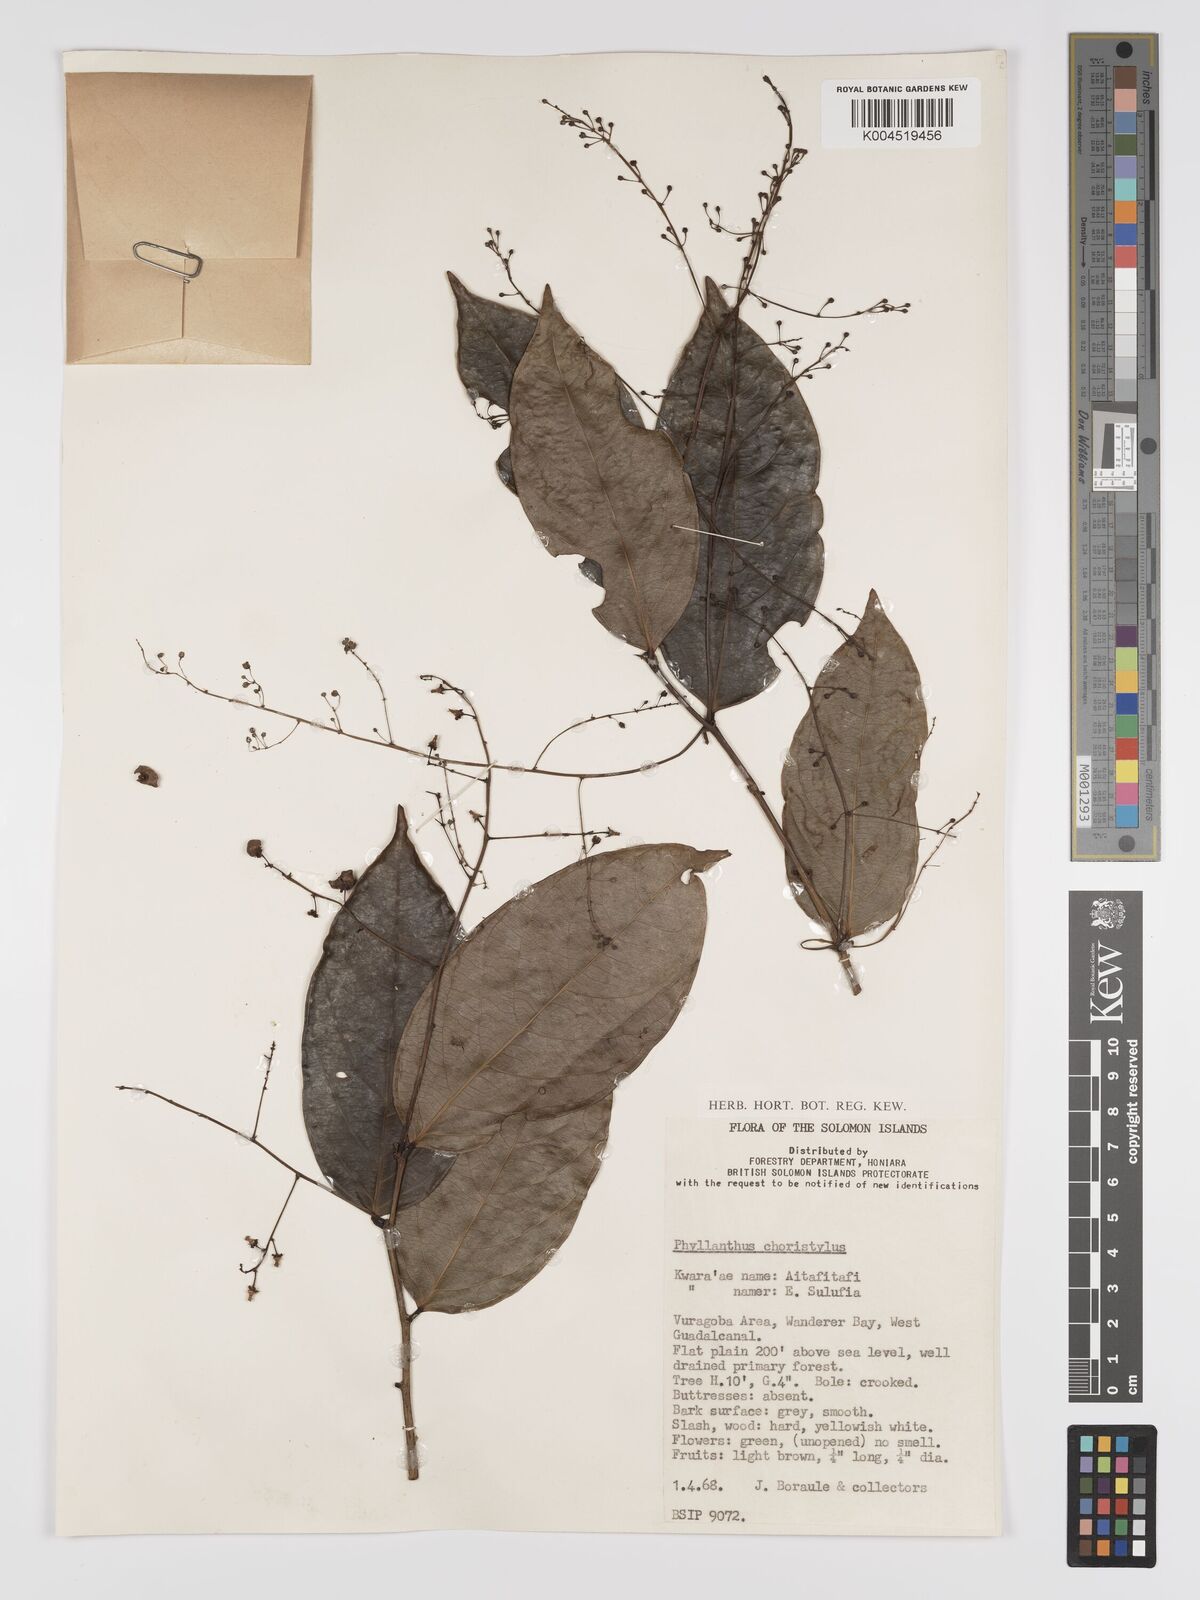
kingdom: Plantae
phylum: Tracheophyta
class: Magnoliopsida
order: Malpighiales
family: Phyllanthaceae
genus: Phyllanthus
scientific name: Phyllanthus clamboides
